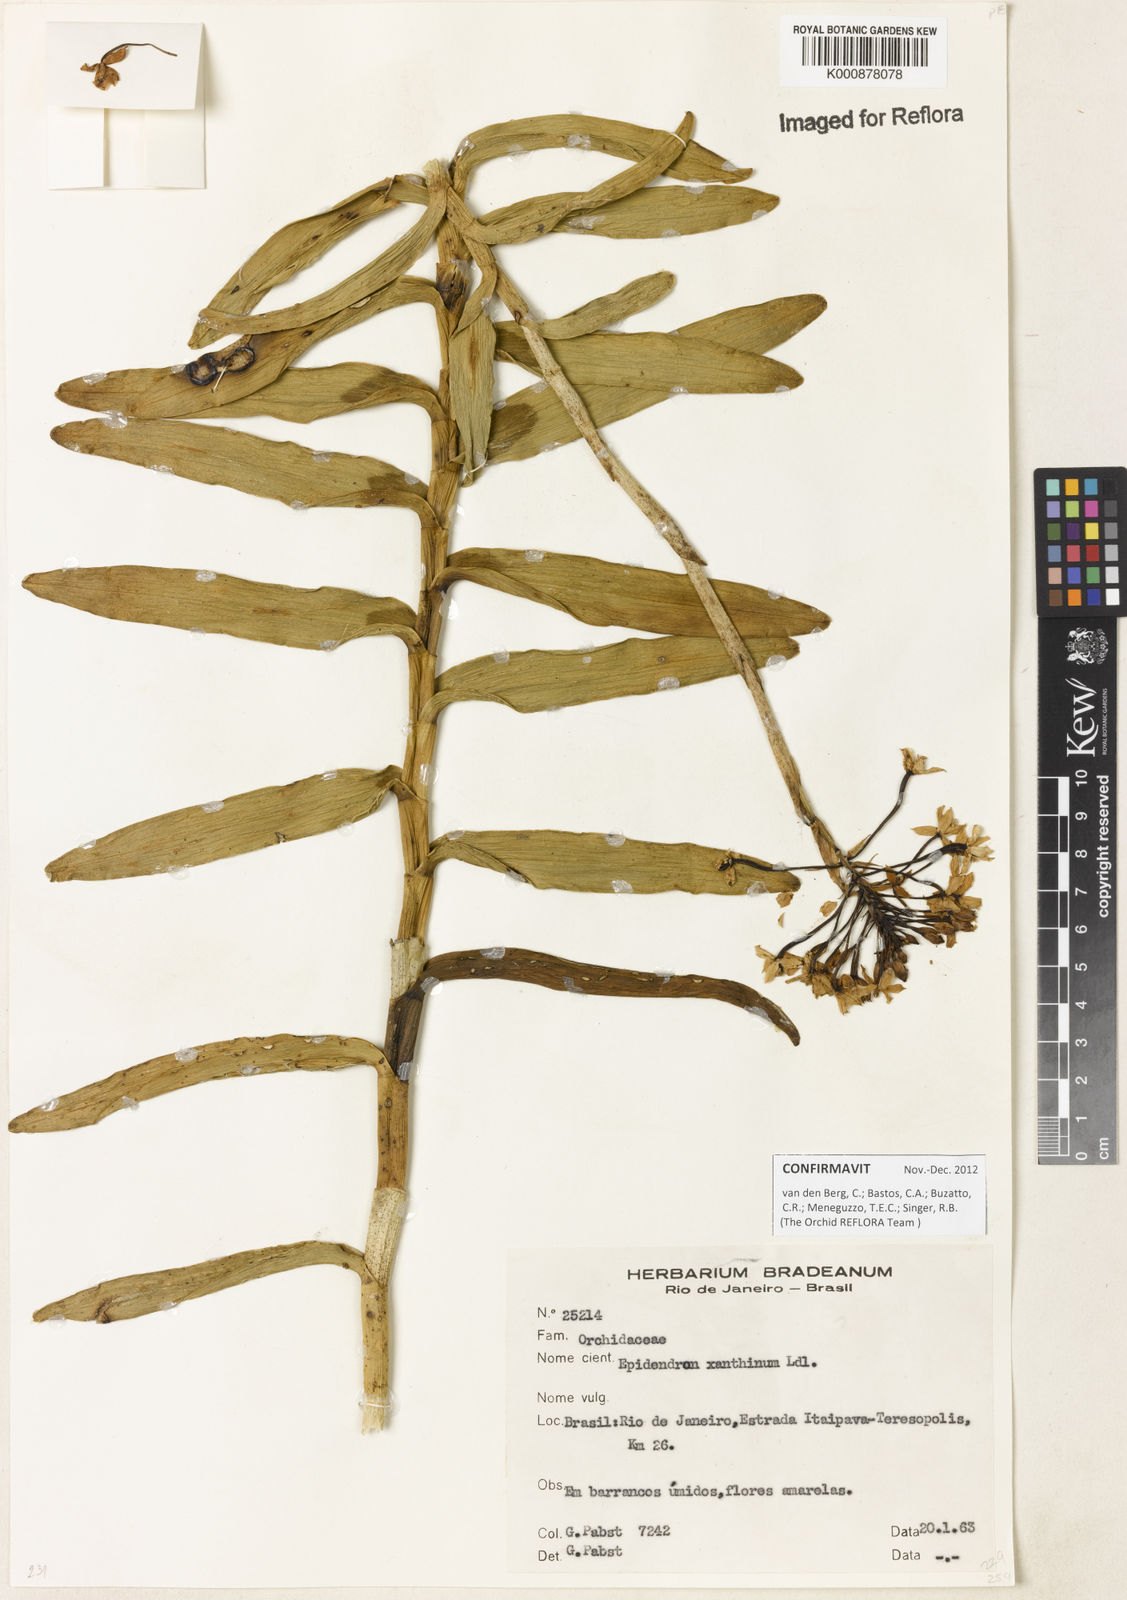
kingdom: Plantae
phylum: Tracheophyta
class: Liliopsida
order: Asparagales
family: Orchidaceae
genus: Epidendrum
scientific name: Epidendrum xanthinum
